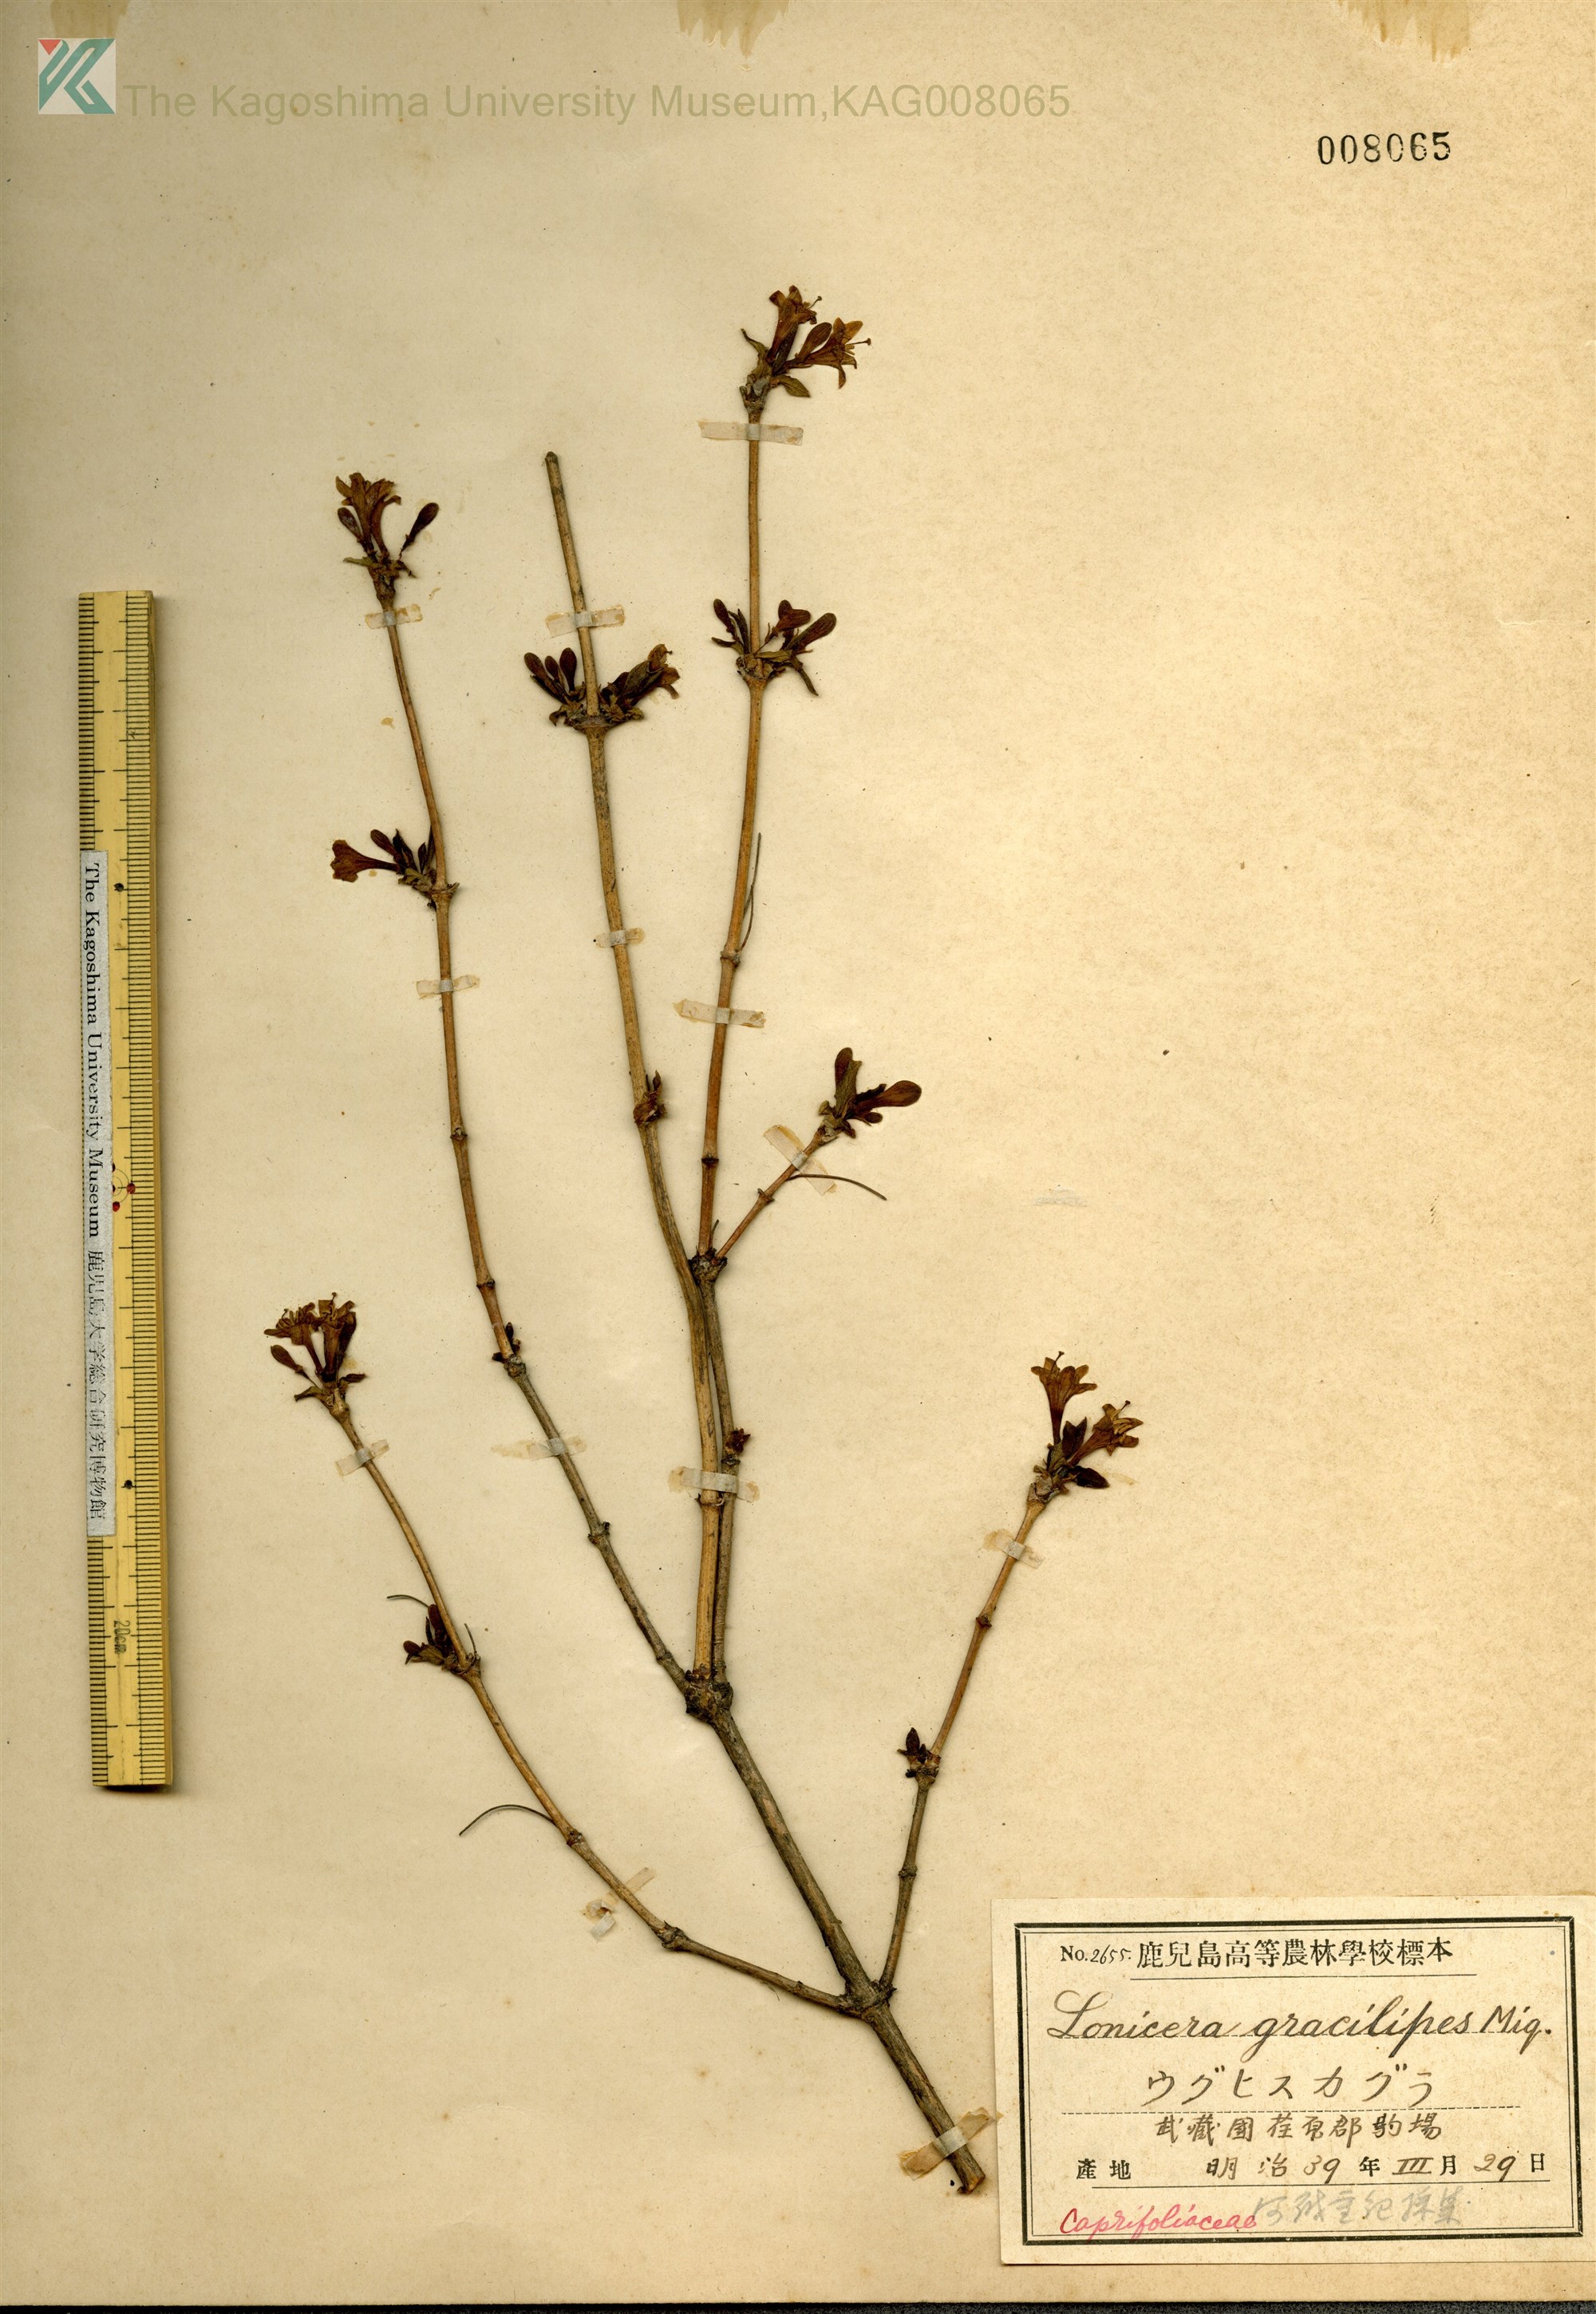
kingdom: Plantae
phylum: Tracheophyta
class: Magnoliopsida
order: Dipsacales
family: Caprifoliaceae
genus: Lonicera
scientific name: Lonicera gracilipes
